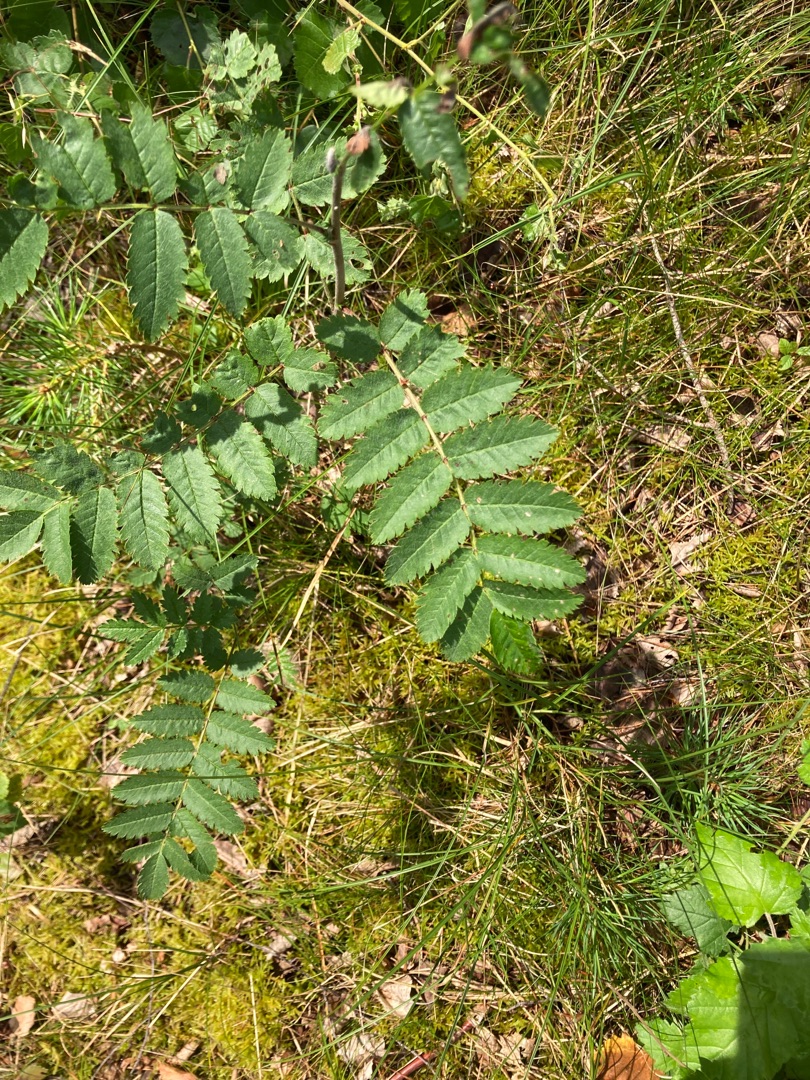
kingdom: Plantae
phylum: Tracheophyta
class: Magnoliopsida
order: Rosales
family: Rosaceae
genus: Sorbus
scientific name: Sorbus aucuparia
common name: Almindelig røn
